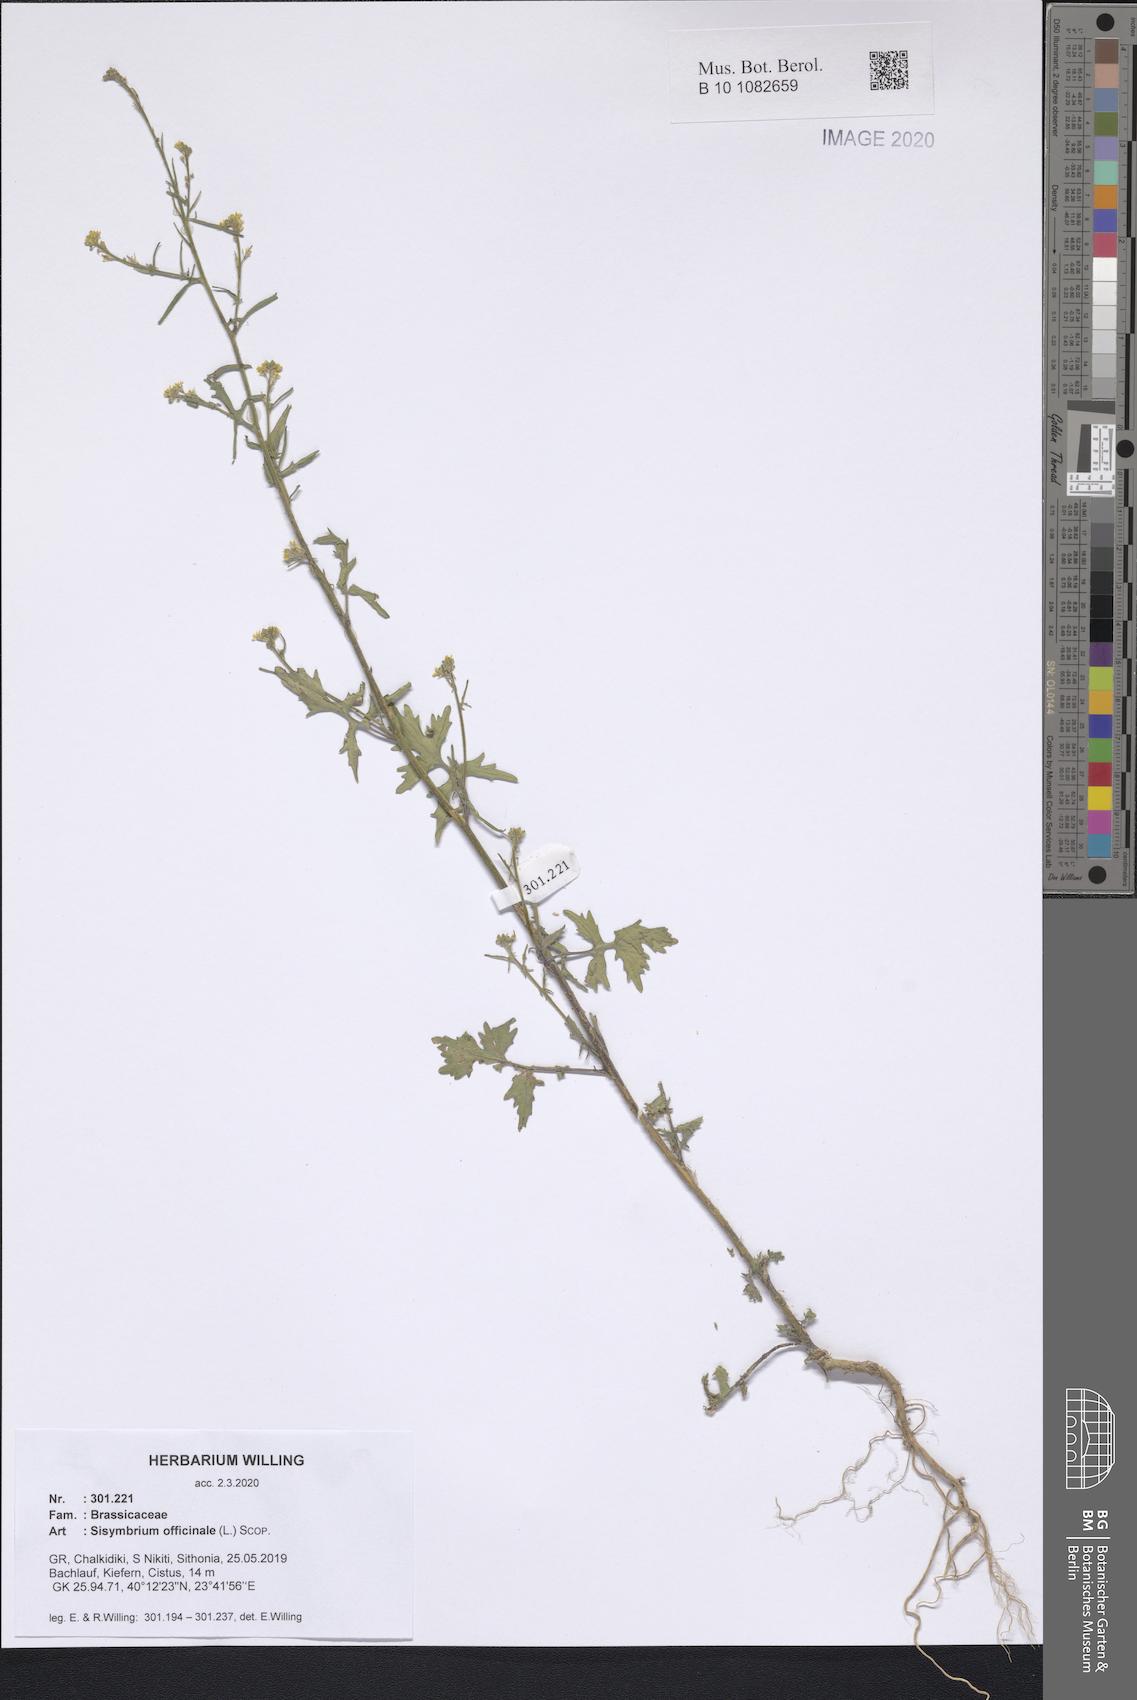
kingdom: Plantae
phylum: Tracheophyta
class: Magnoliopsida
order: Brassicales
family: Brassicaceae
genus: Sisymbrium
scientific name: Sisymbrium officinale
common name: Hedge mustard
